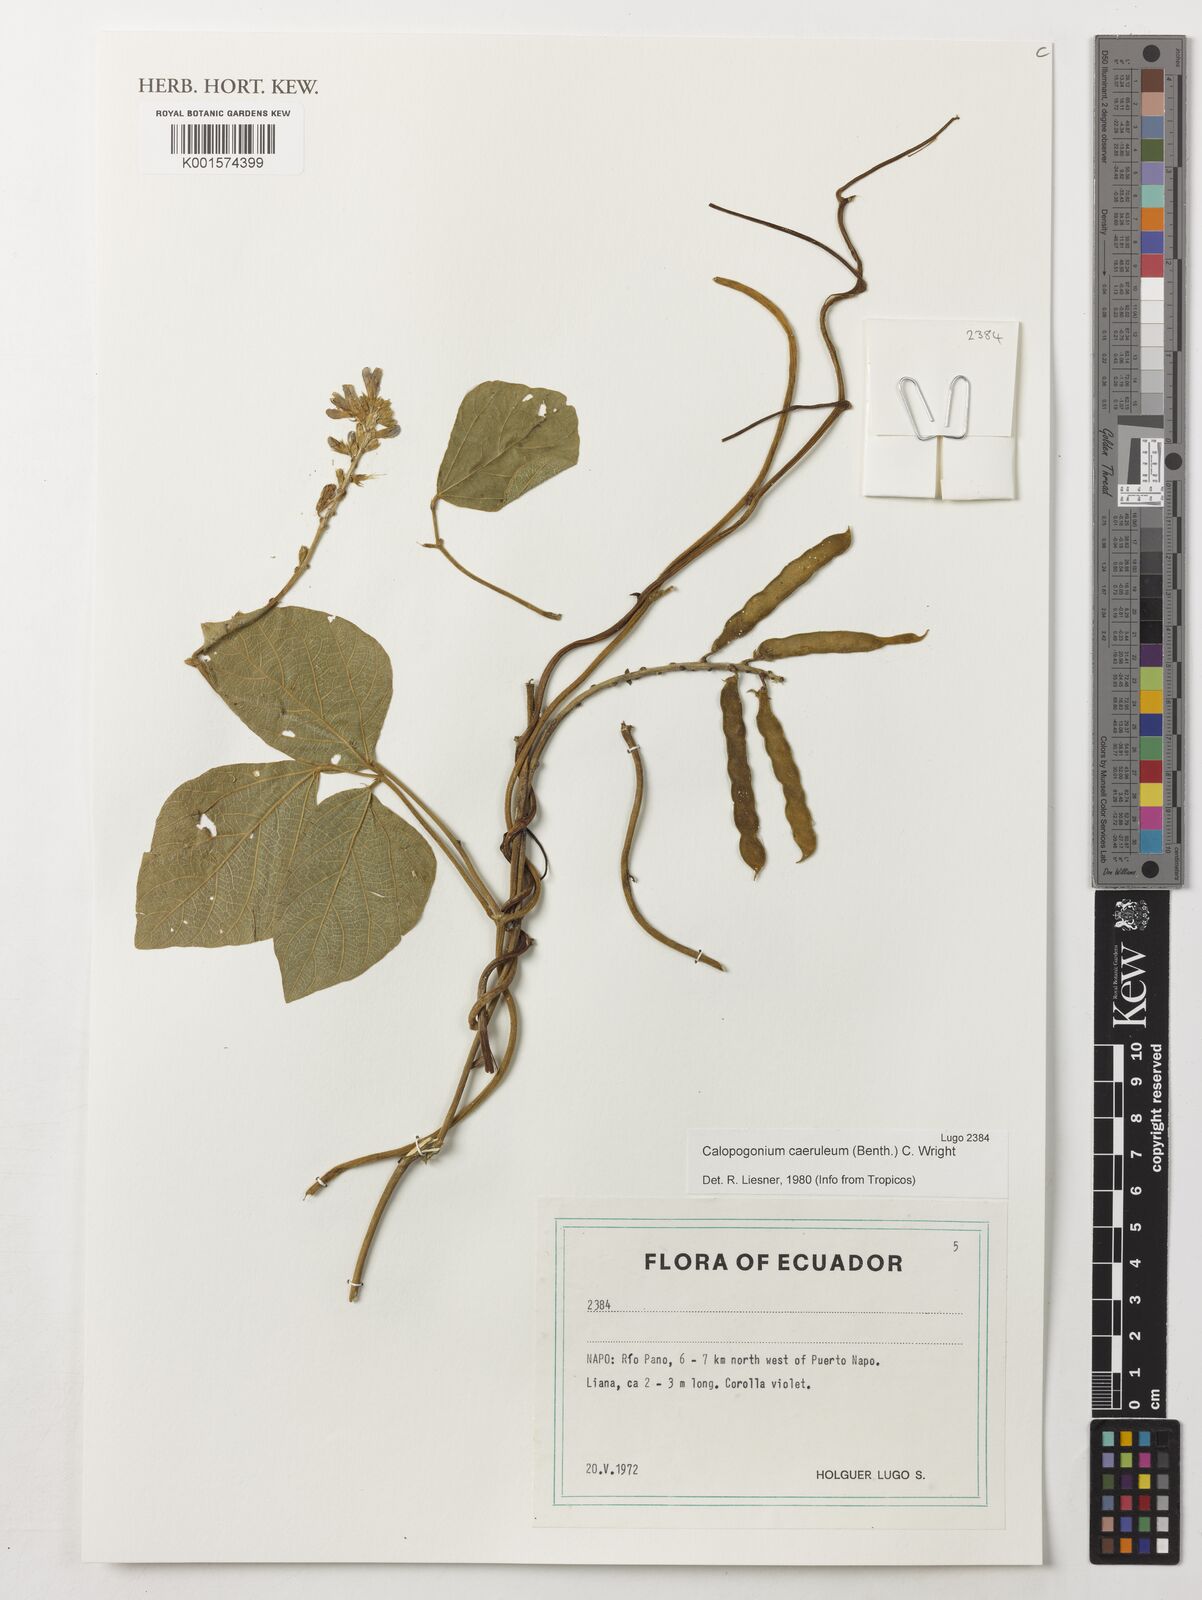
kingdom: Plantae
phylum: Tracheophyta
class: Magnoliopsida
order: Fabales
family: Fabaceae
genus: Calopogonium
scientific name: Calopogonium caeruleum
